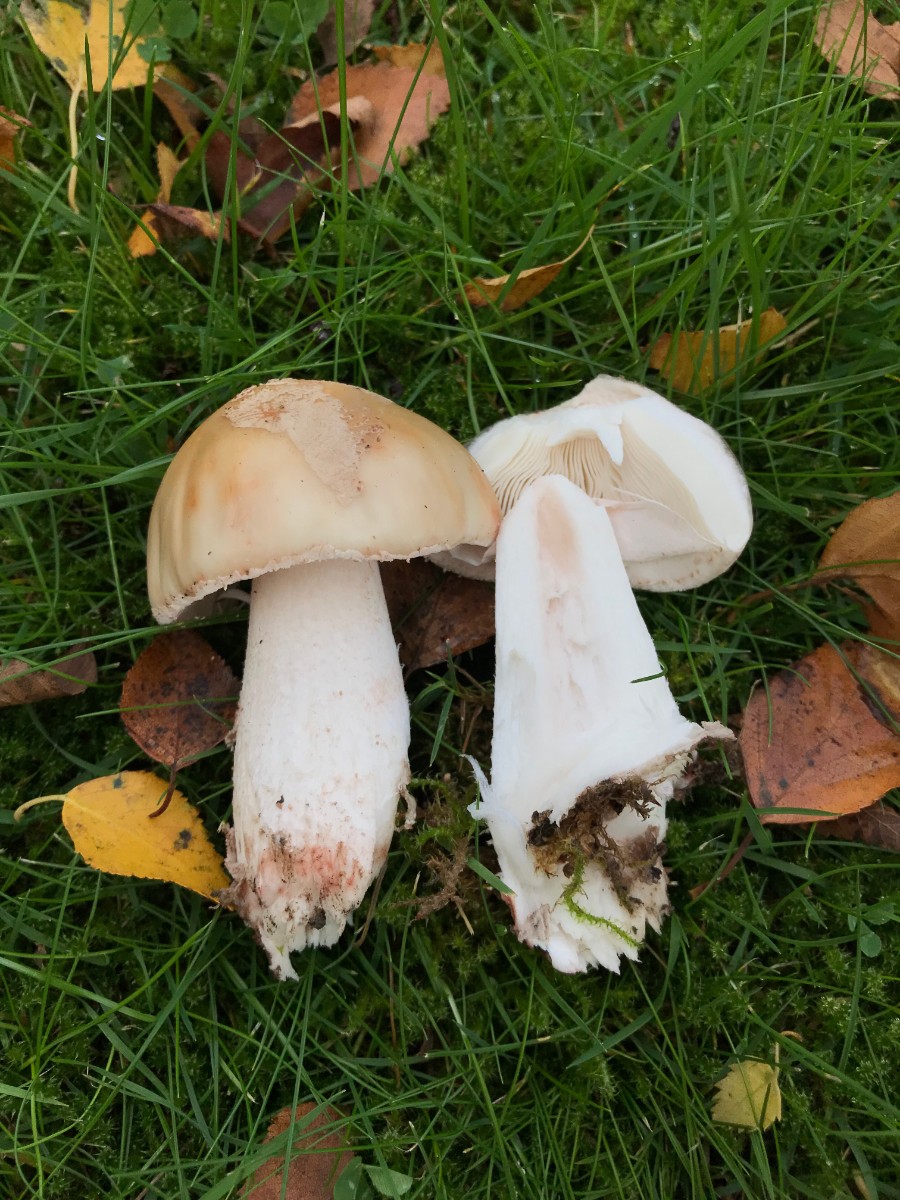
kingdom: Fungi
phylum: Basidiomycota
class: Agaricomycetes
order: Agaricales
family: Amanitaceae
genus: Amanita
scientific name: Amanita rubescens
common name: rødmende fluesvamp
